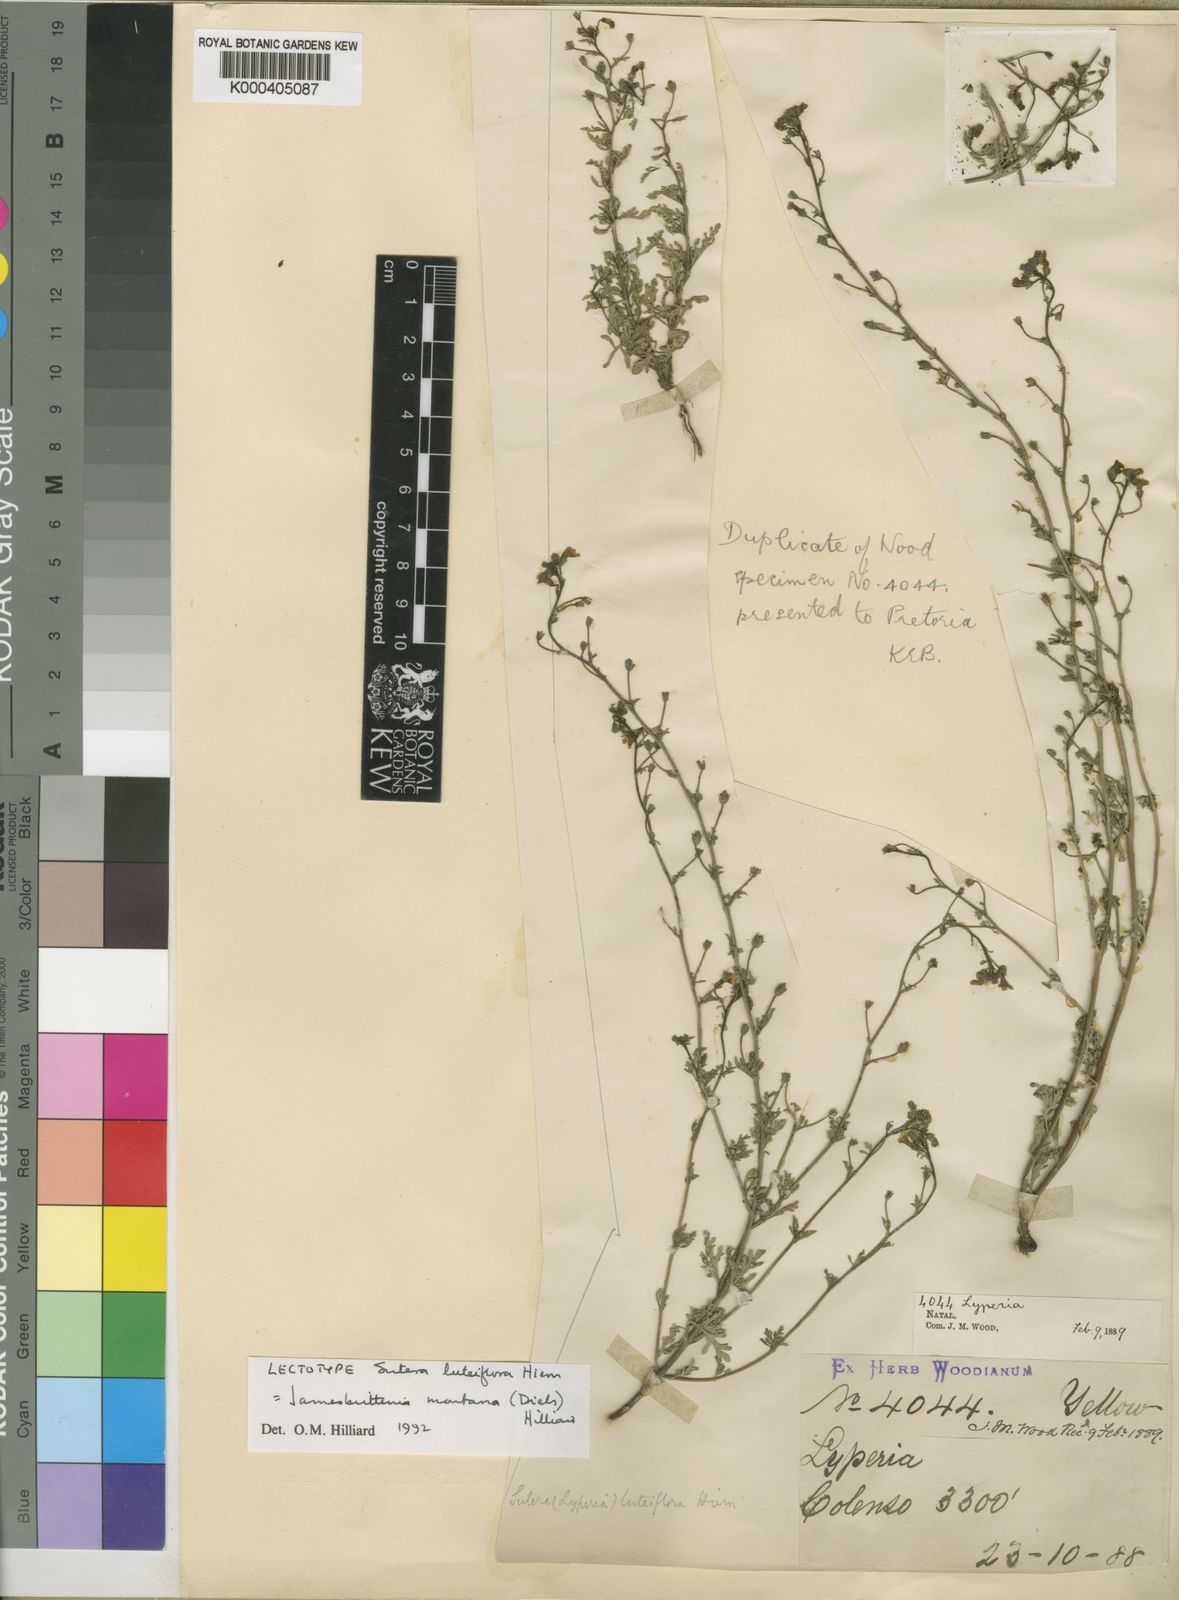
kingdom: Plantae
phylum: Tracheophyta
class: Magnoliopsida
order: Lamiales
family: Scrophulariaceae
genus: Jamesbrittenia
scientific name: Jamesbrittenia montana
